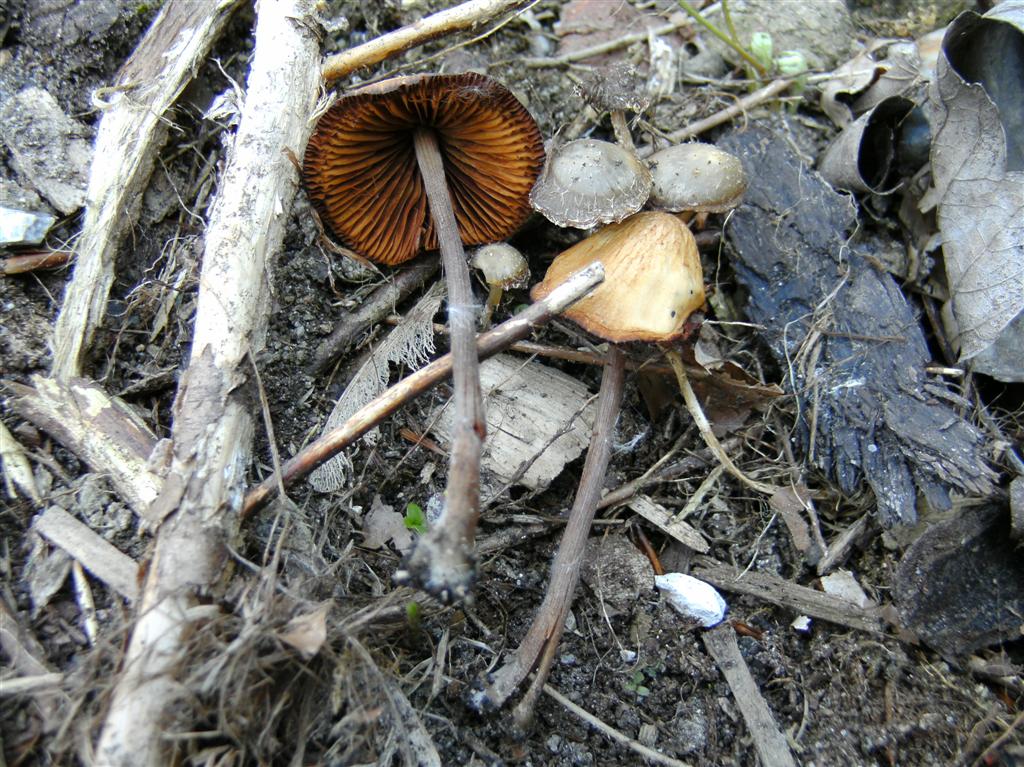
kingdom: Fungi
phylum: Basidiomycota
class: Agaricomycetes
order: Agaricales
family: Bolbitiaceae
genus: Conocybe
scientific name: Conocybe subpubescens
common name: krat-keglehat
